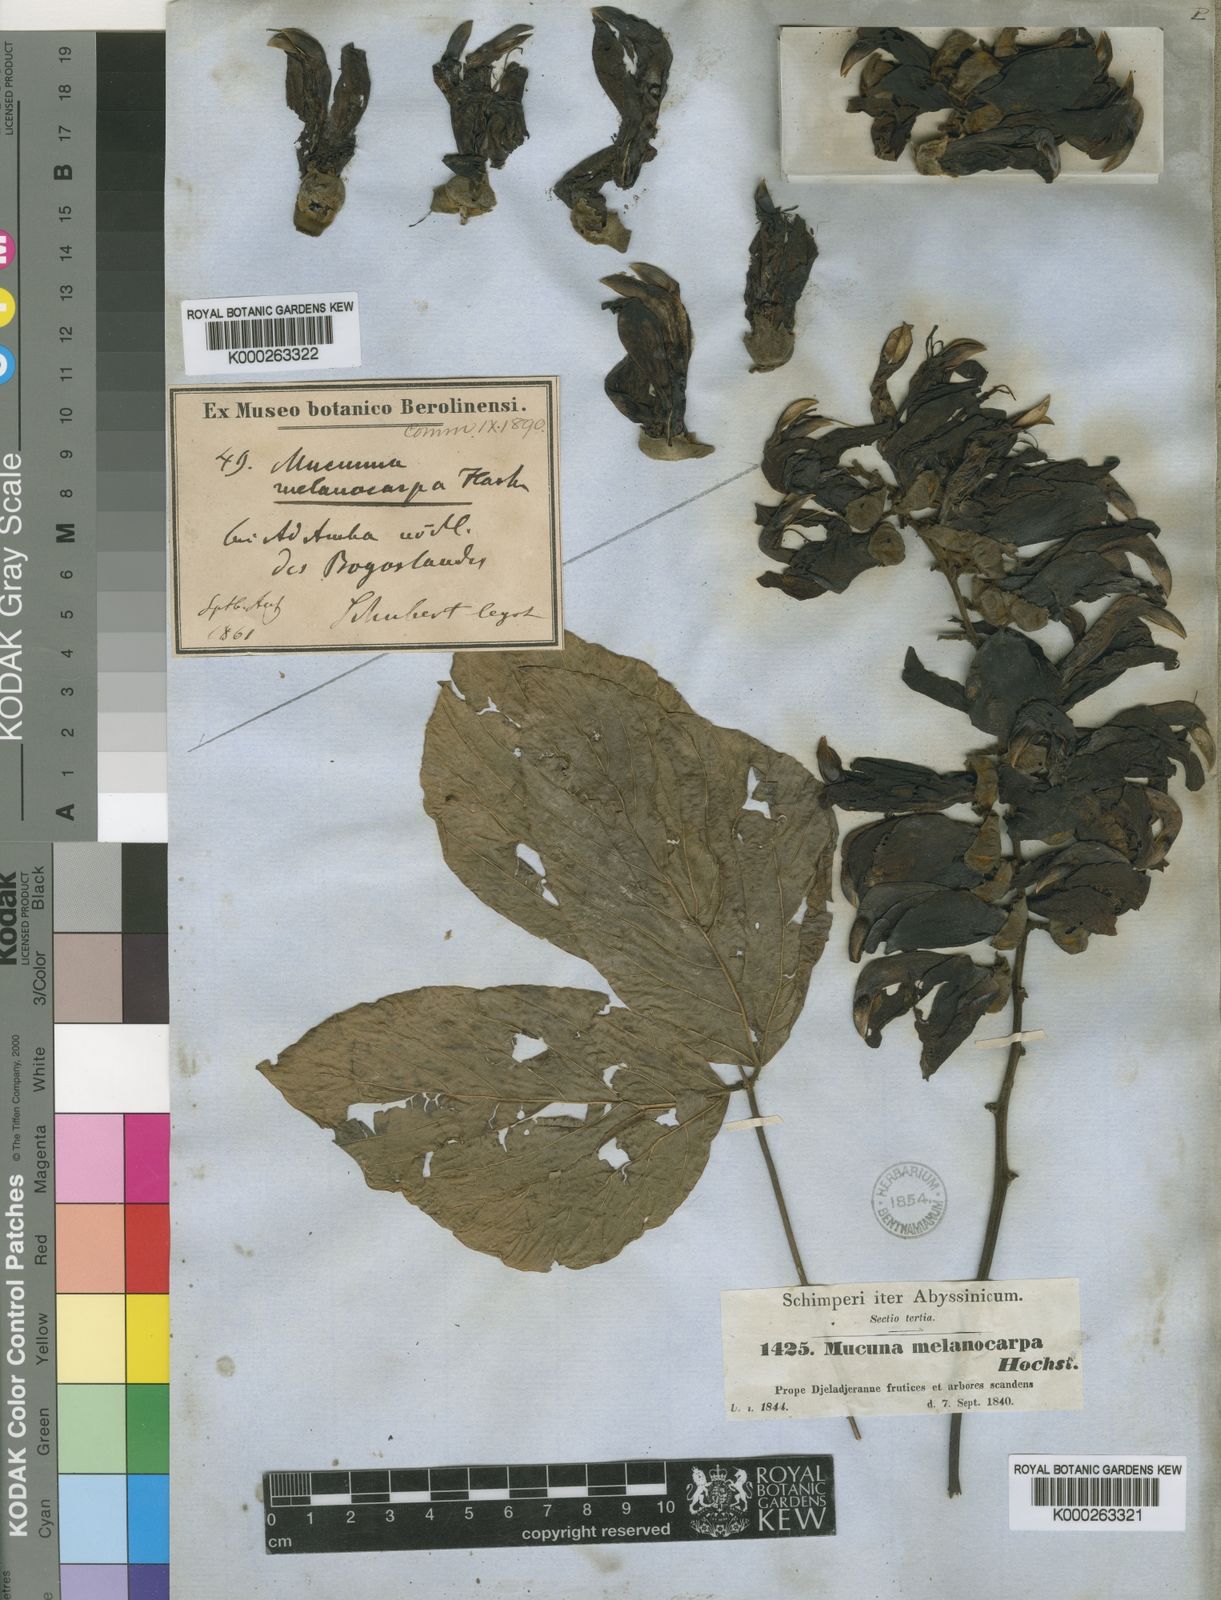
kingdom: Plantae
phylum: Tracheophyta
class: Magnoliopsida
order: Fabales
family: Fabaceae
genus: Mucuna
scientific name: Mucuna melanocarpa
